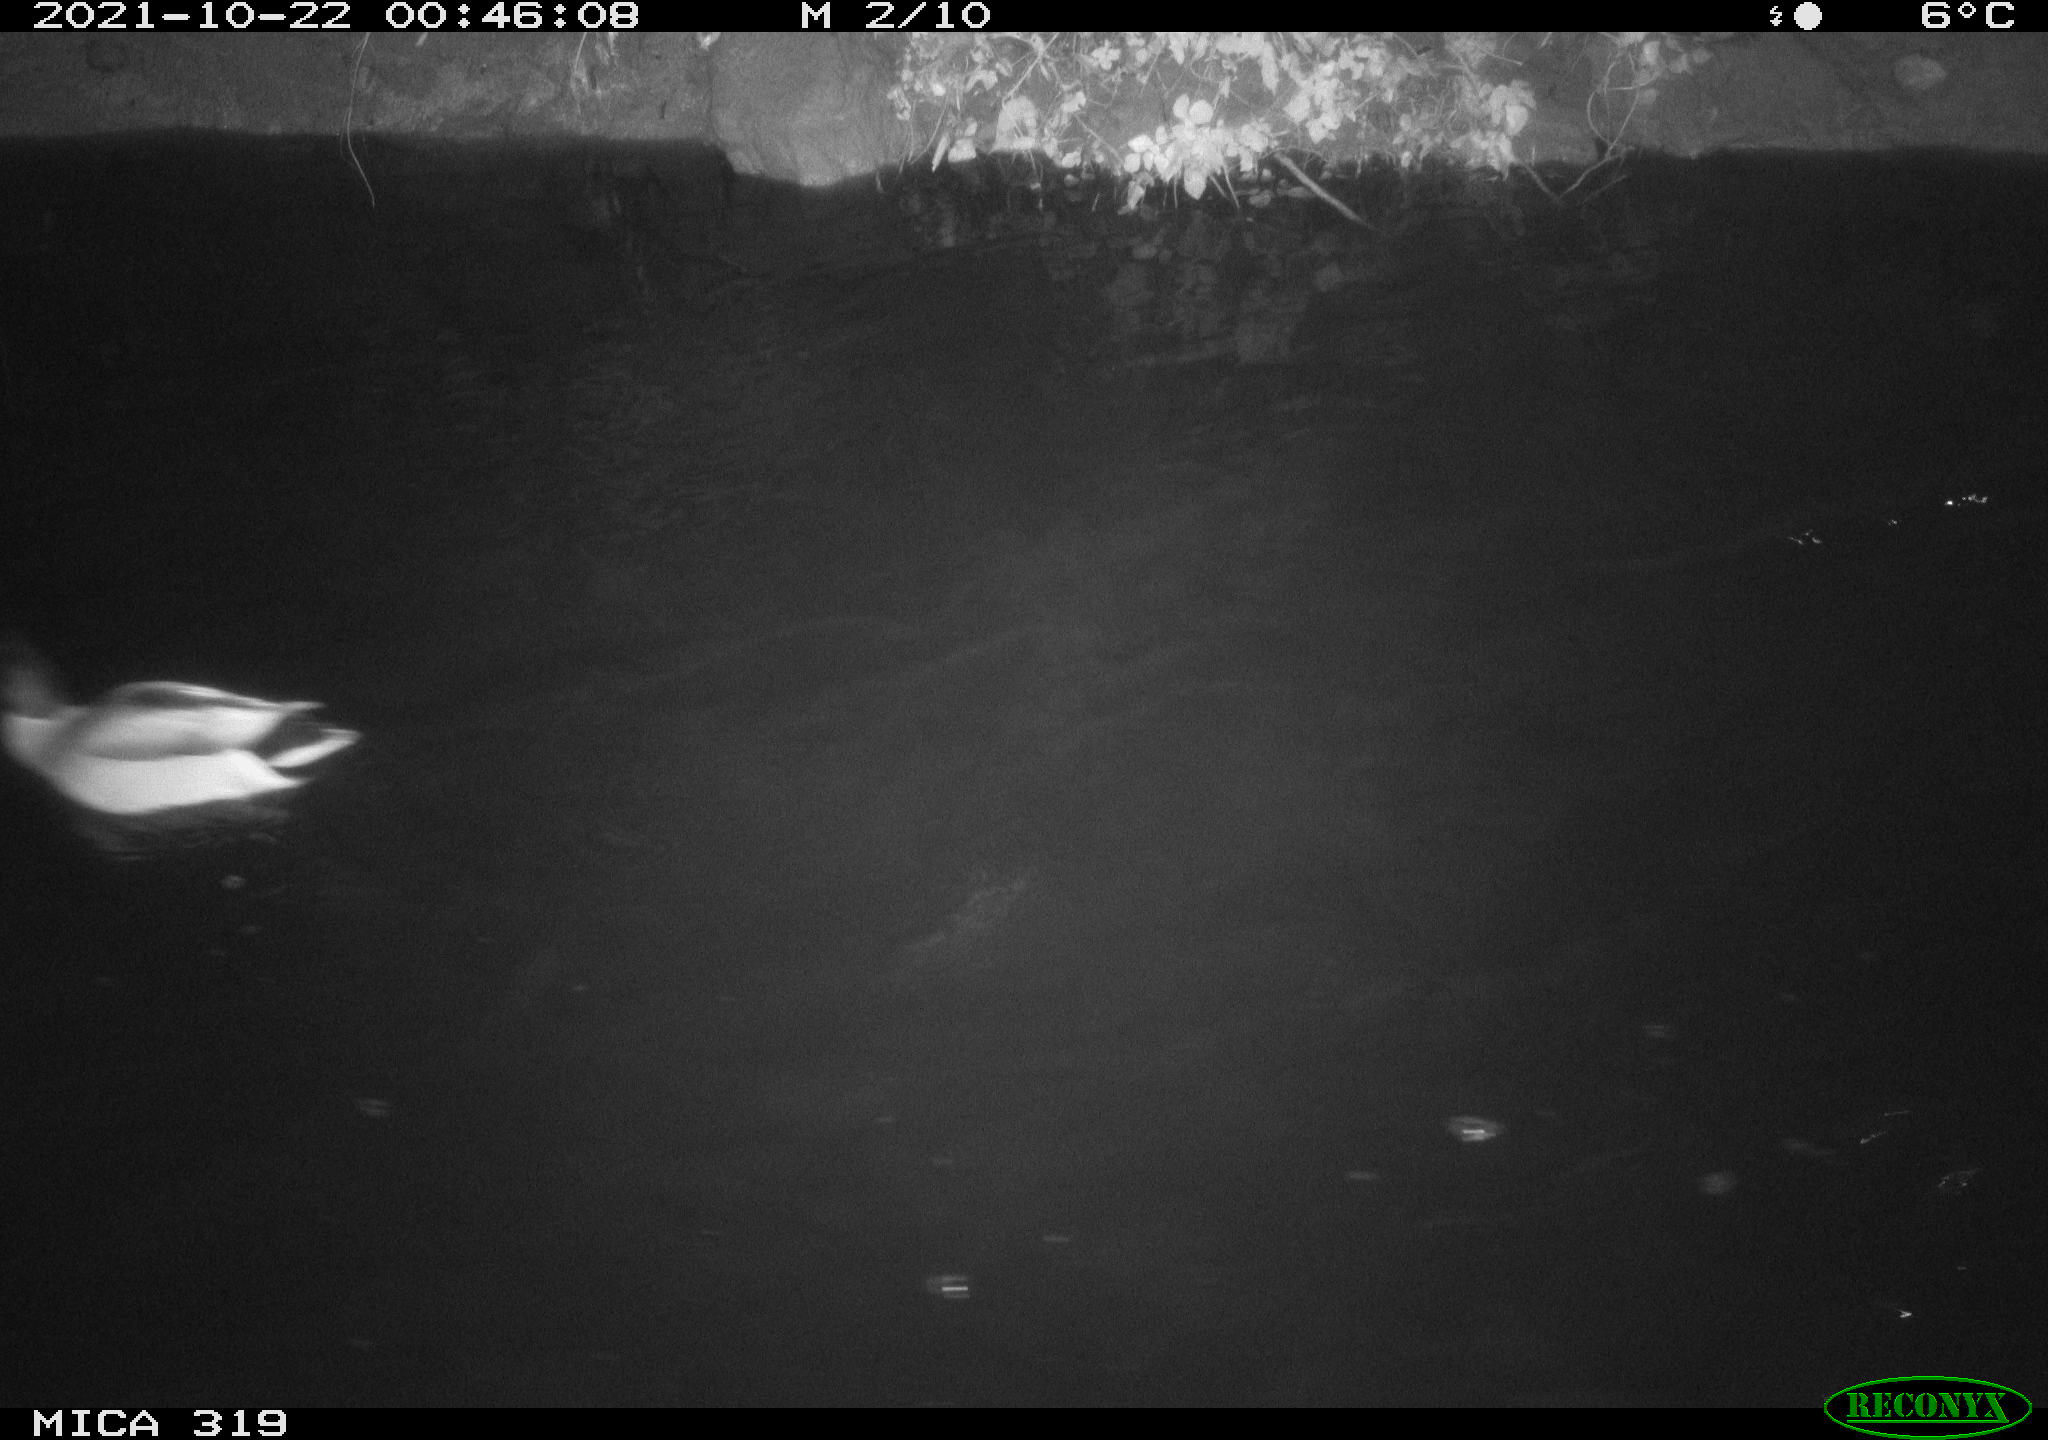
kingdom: Animalia
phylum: Chordata
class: Aves
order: Anseriformes
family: Anatidae
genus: Anas
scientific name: Anas platyrhynchos
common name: Mallard
